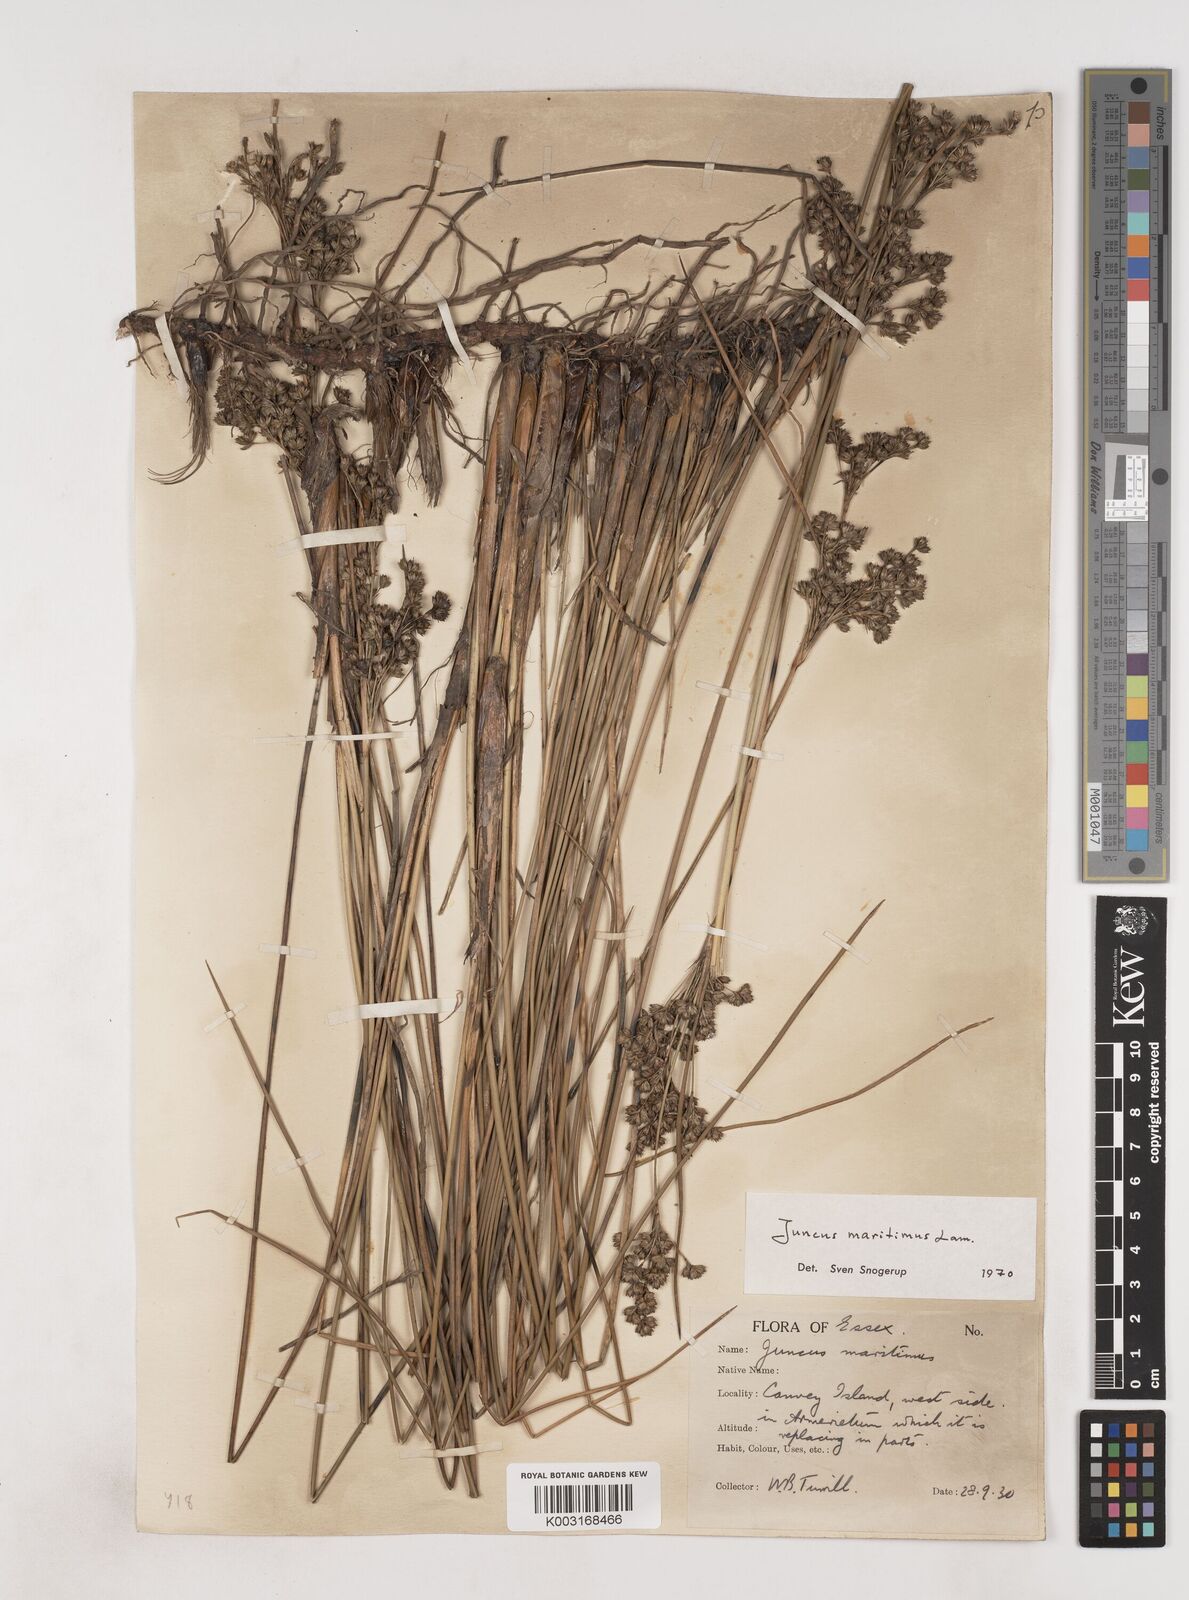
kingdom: Plantae
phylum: Tracheophyta
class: Liliopsida
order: Poales
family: Juncaceae
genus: Juncus
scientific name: Juncus maritimus
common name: Sea rush
